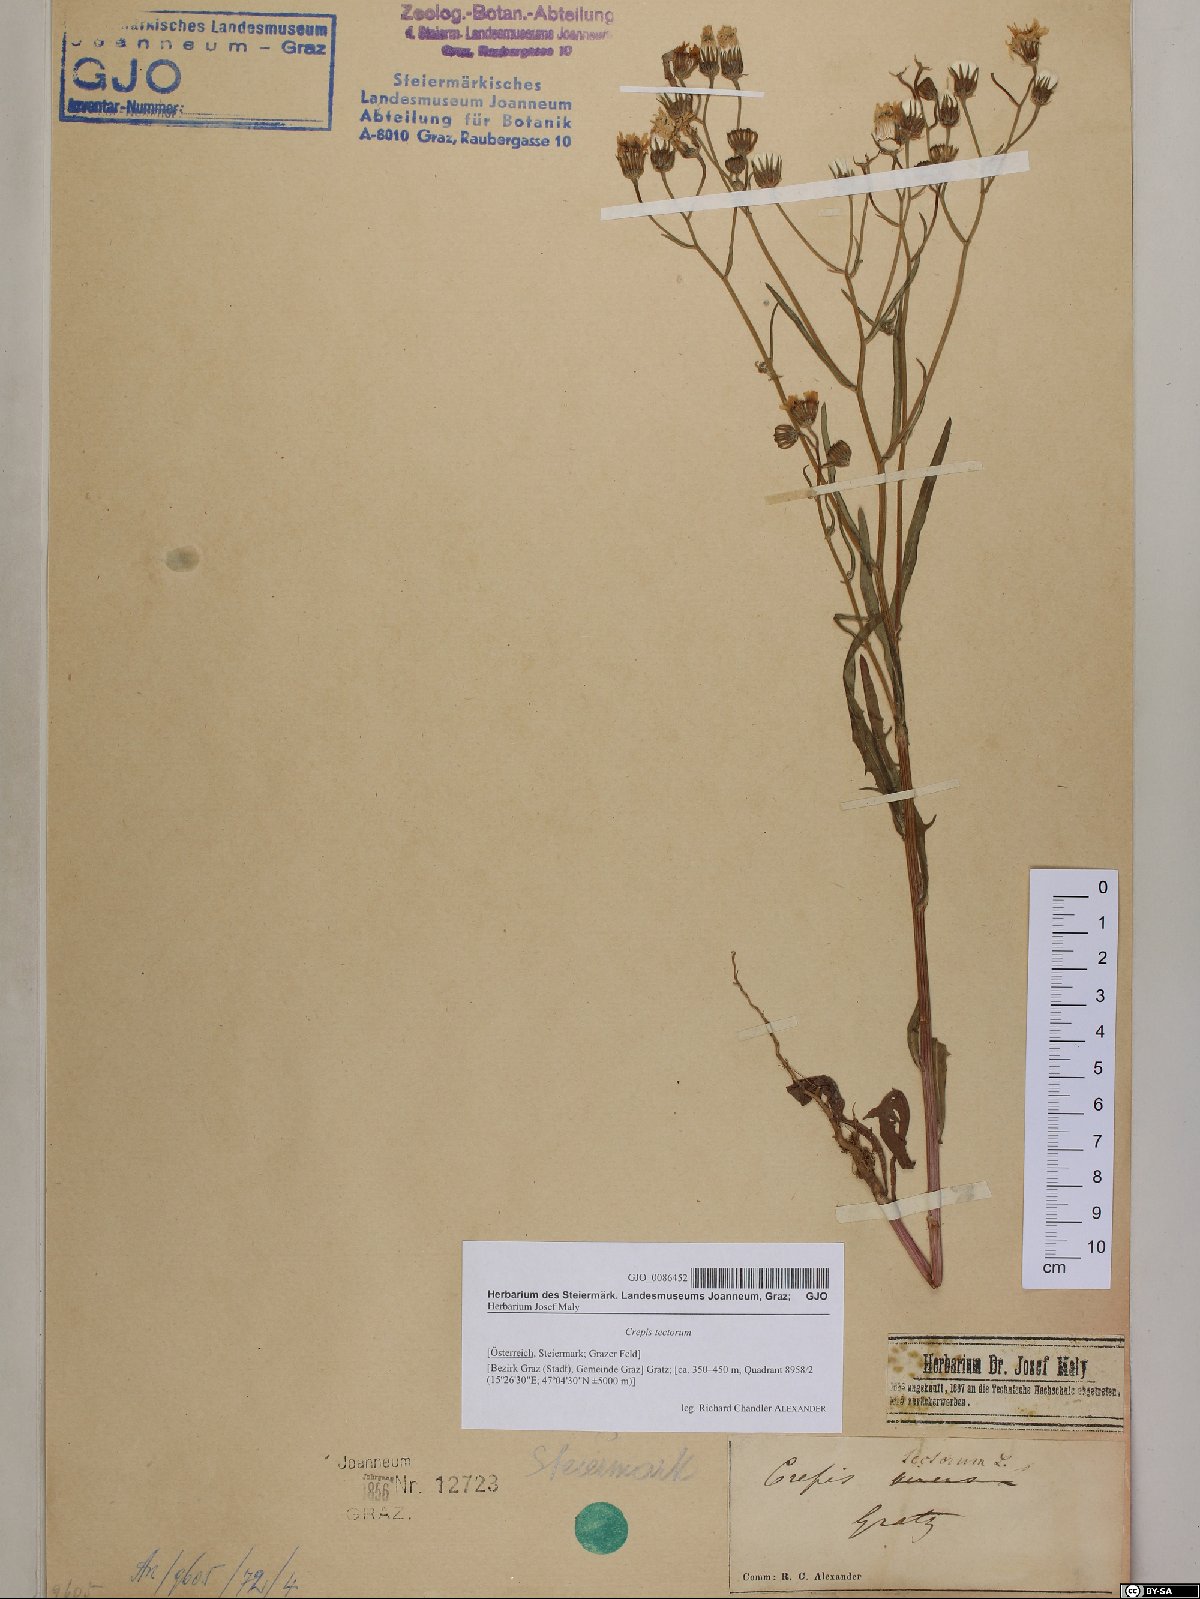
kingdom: Plantae
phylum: Tracheophyta
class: Magnoliopsida
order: Asterales
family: Asteraceae
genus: Crepis
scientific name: Crepis tectorum
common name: Narrow-leaved hawk's-beard
